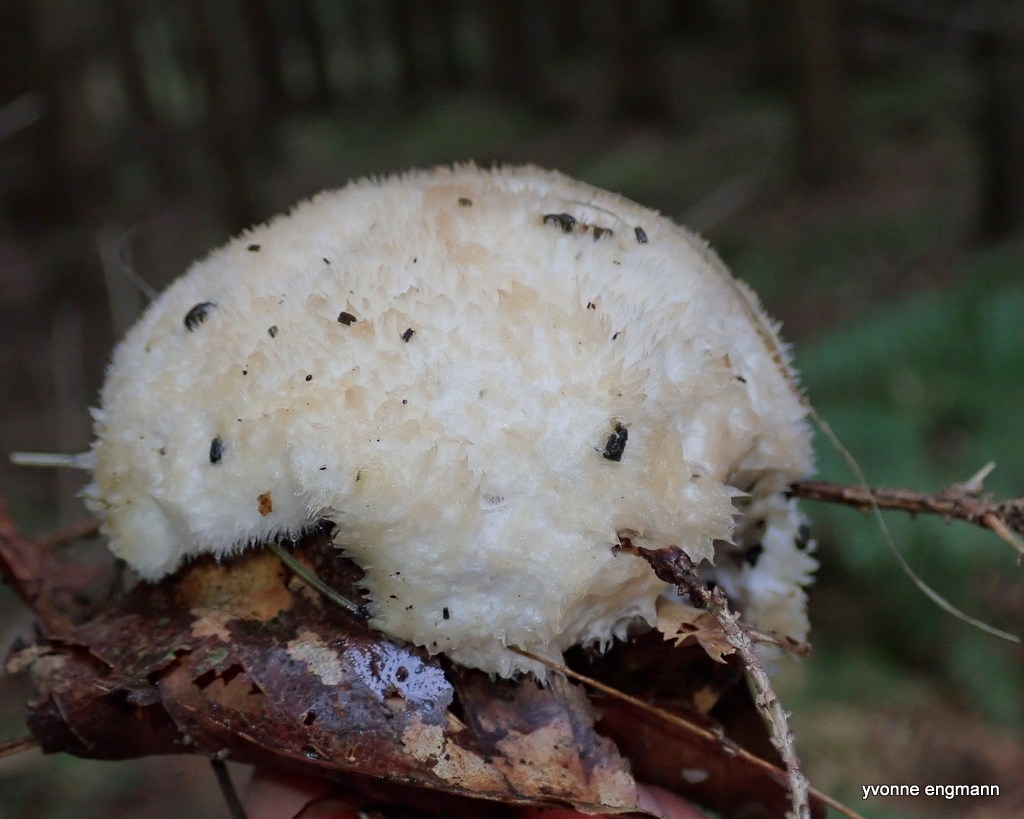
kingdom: Fungi
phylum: Basidiomycota
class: Agaricomycetes
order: Polyporales
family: Dacryobolaceae
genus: Postia
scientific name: Postia ptychogaster
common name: støvende kødporesvamp
